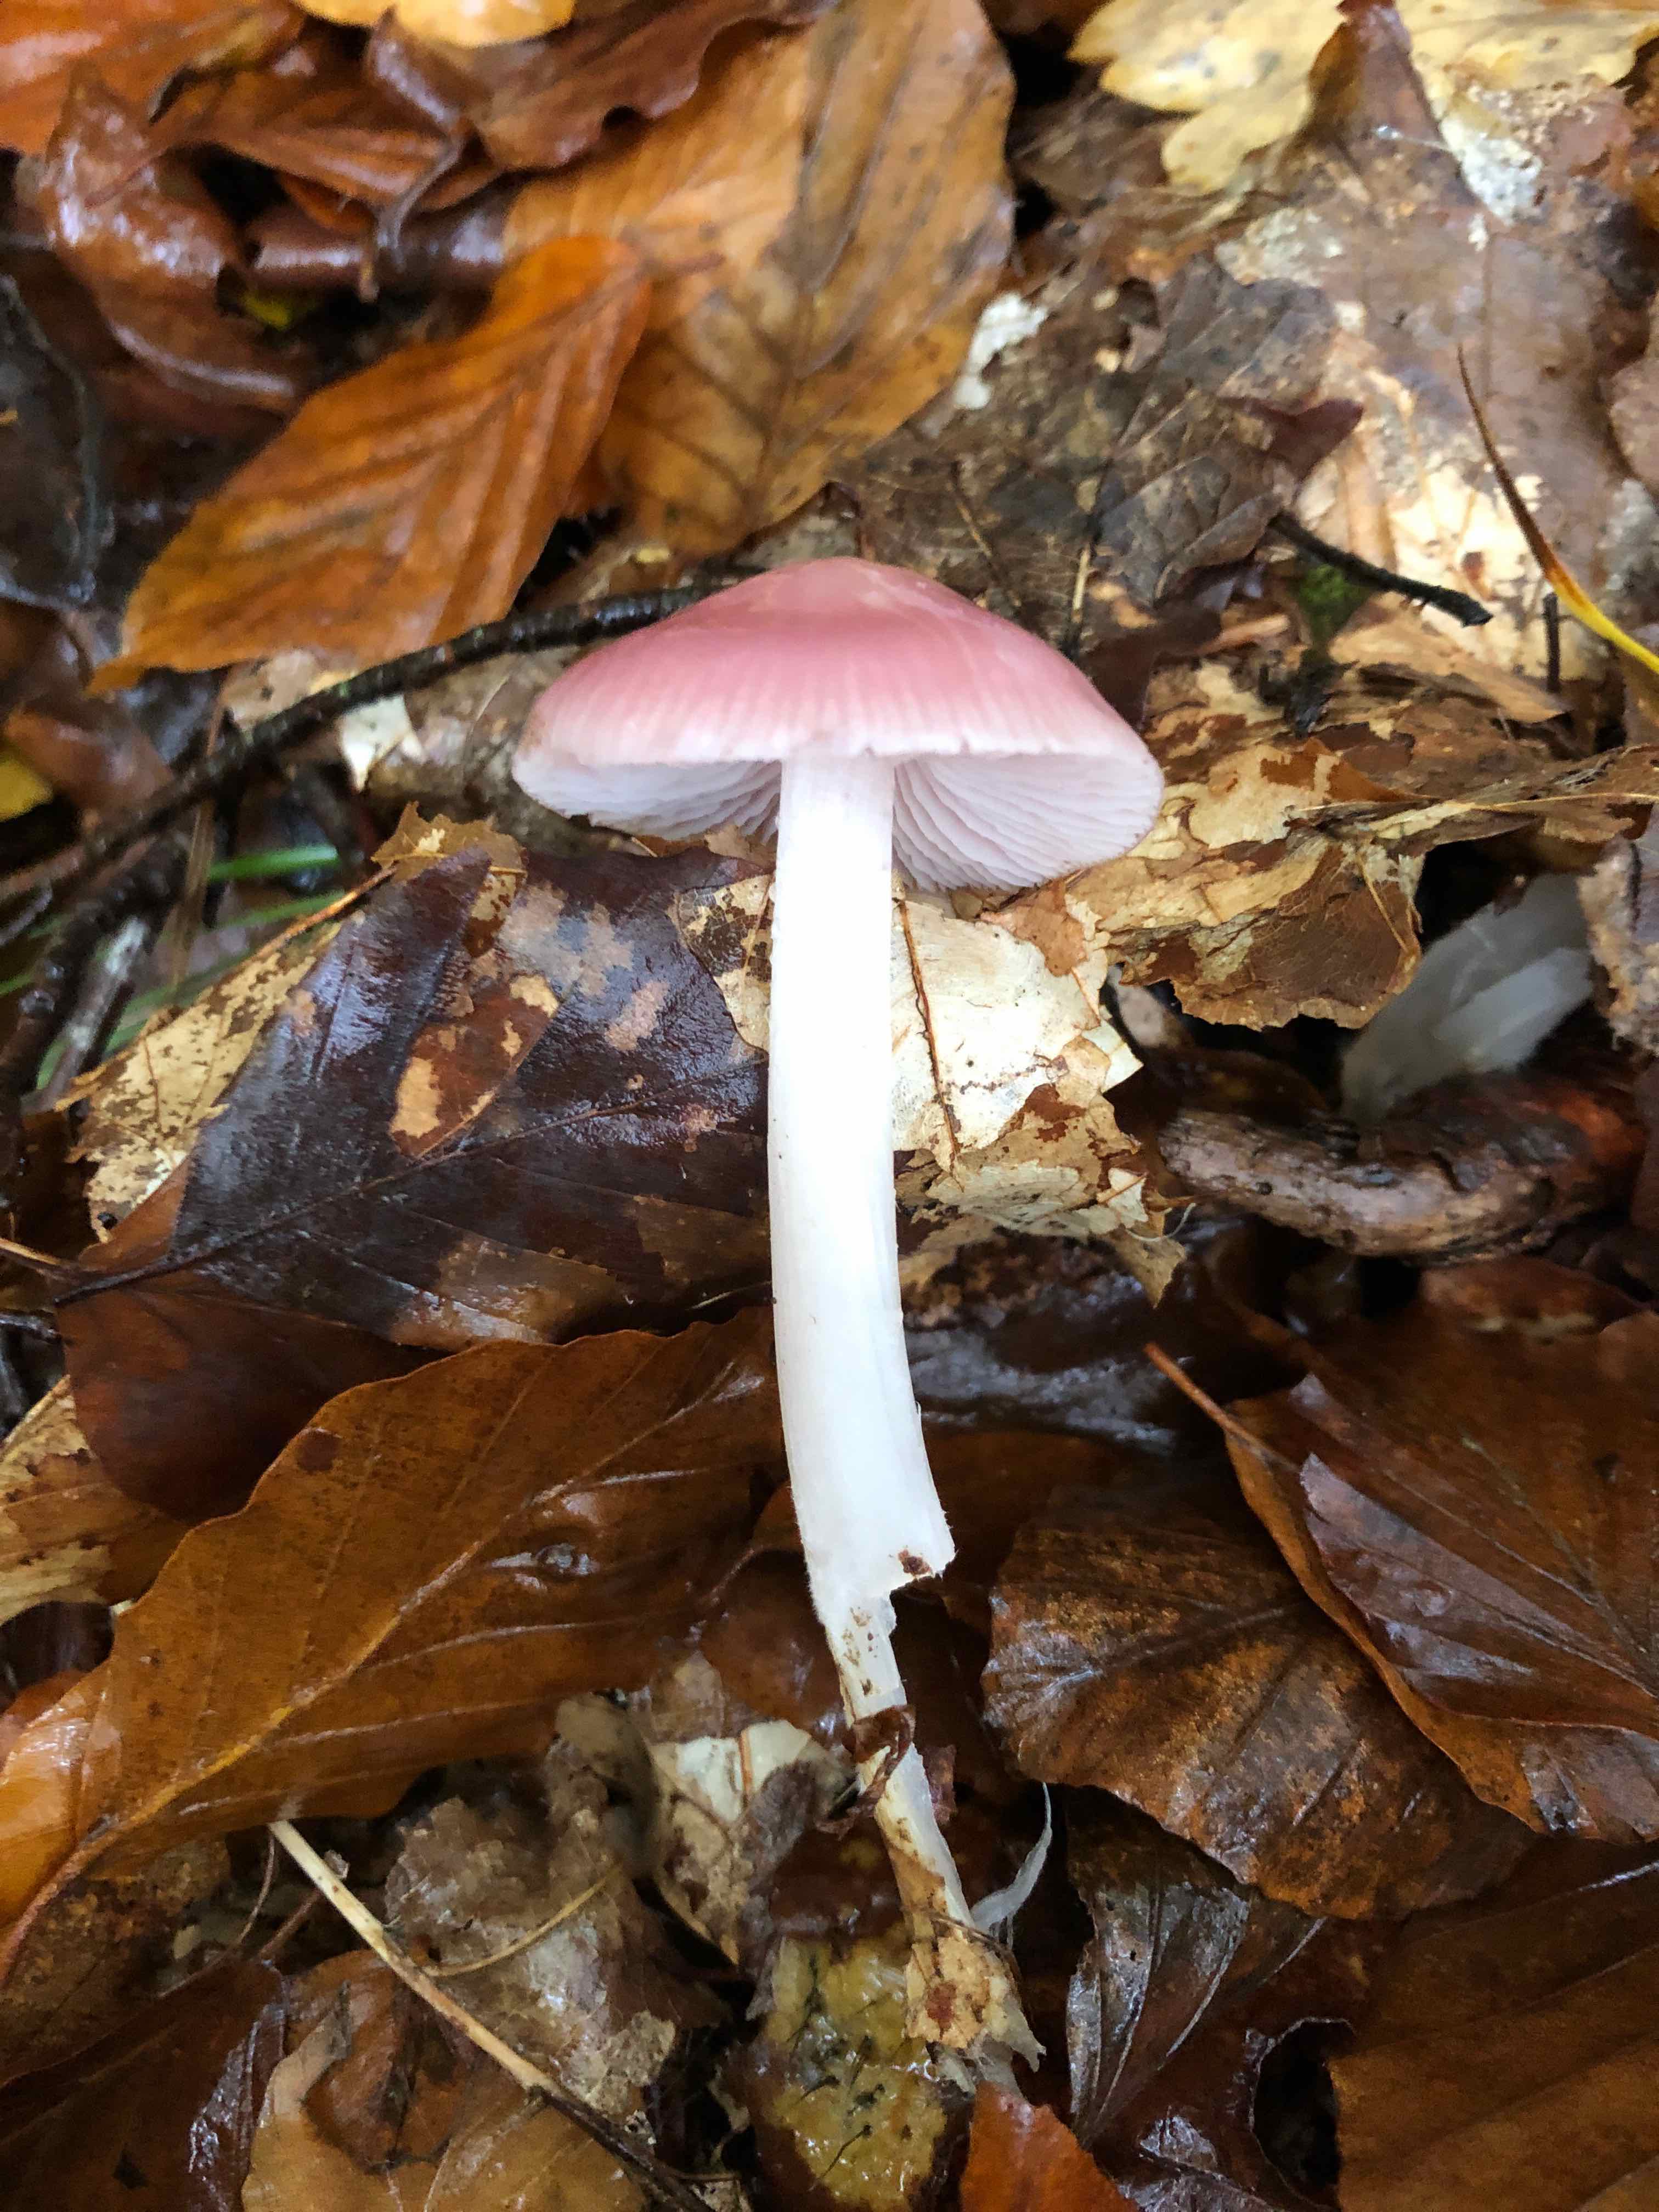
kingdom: Fungi
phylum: Basidiomycota
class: Agaricomycetes
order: Agaricales
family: Mycenaceae
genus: Mycena
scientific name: Mycena rosea
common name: rosa huesvamp
